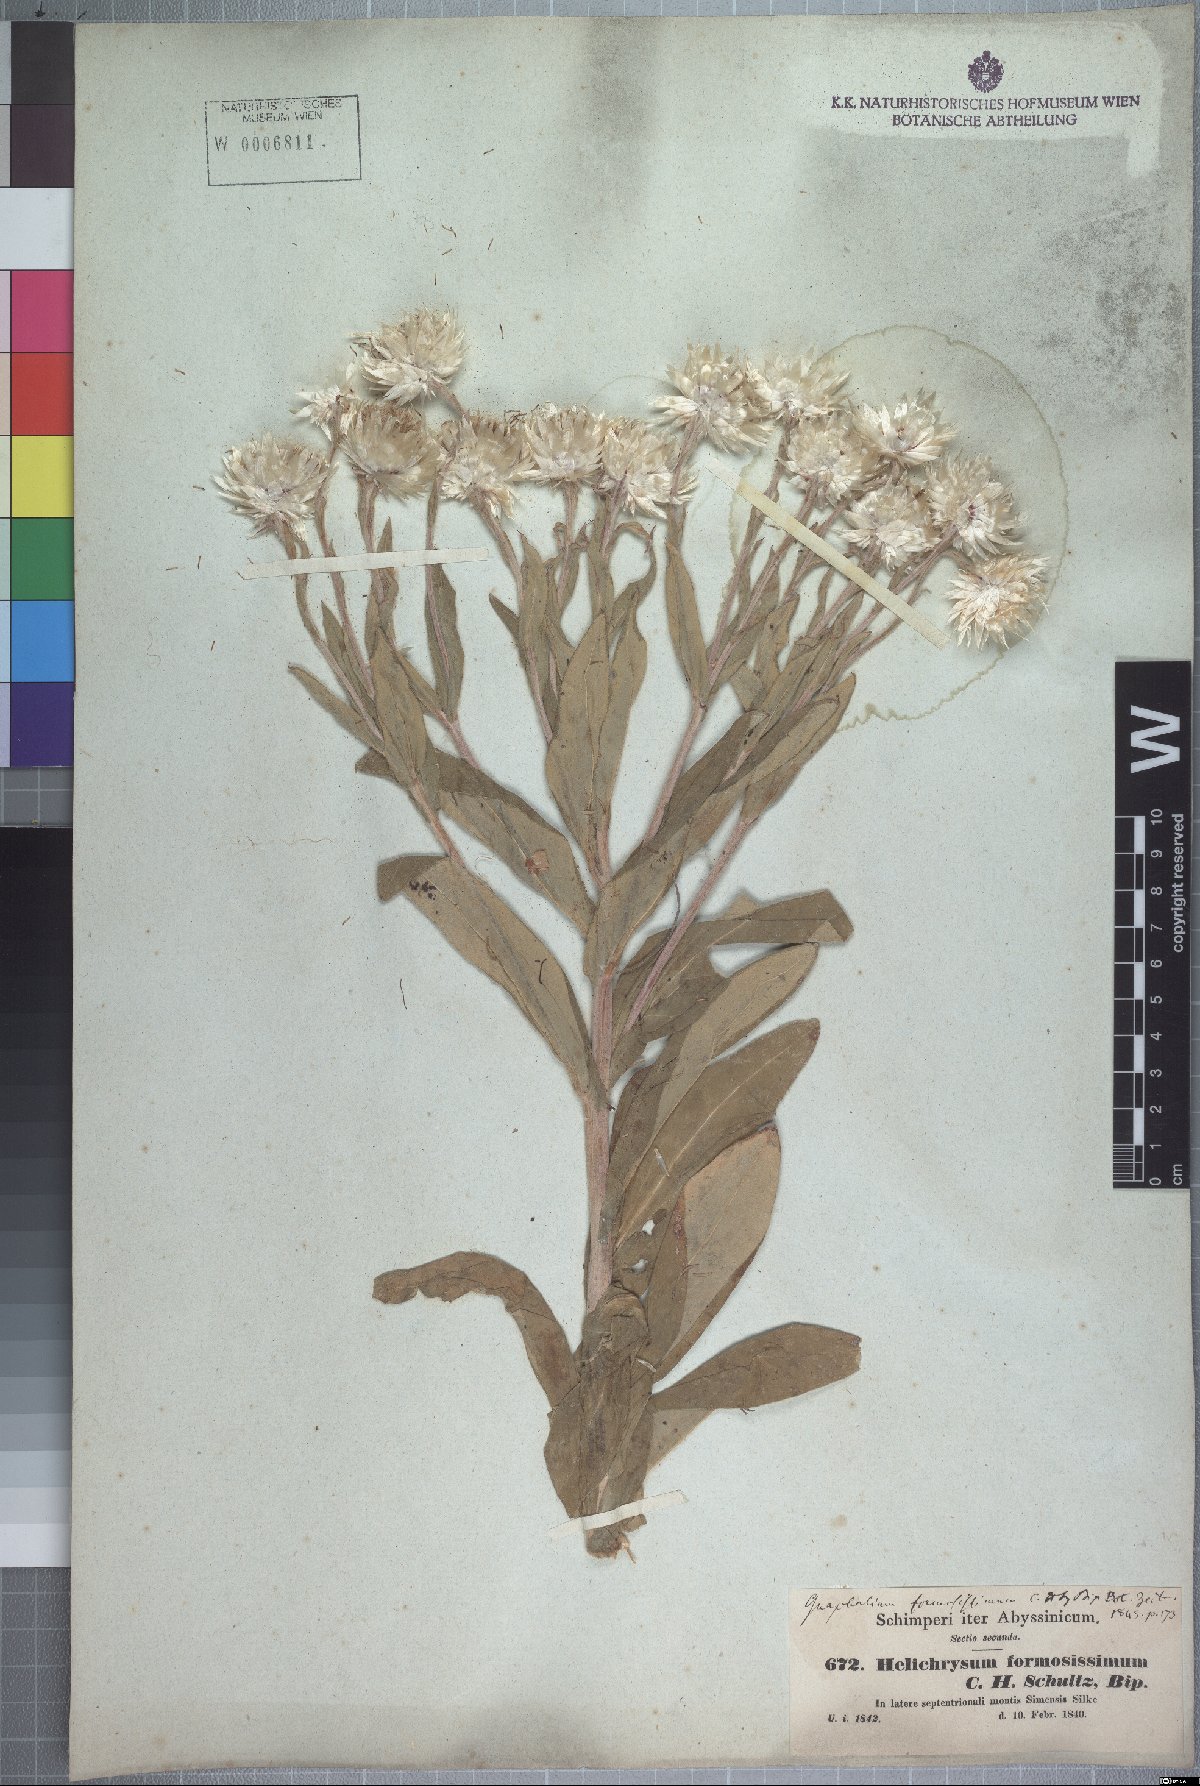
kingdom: Plantae
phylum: Tracheophyta
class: Magnoliopsida
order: Asterales
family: Asteraceae
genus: Helichrysum
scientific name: Helichrysum formosissimum
